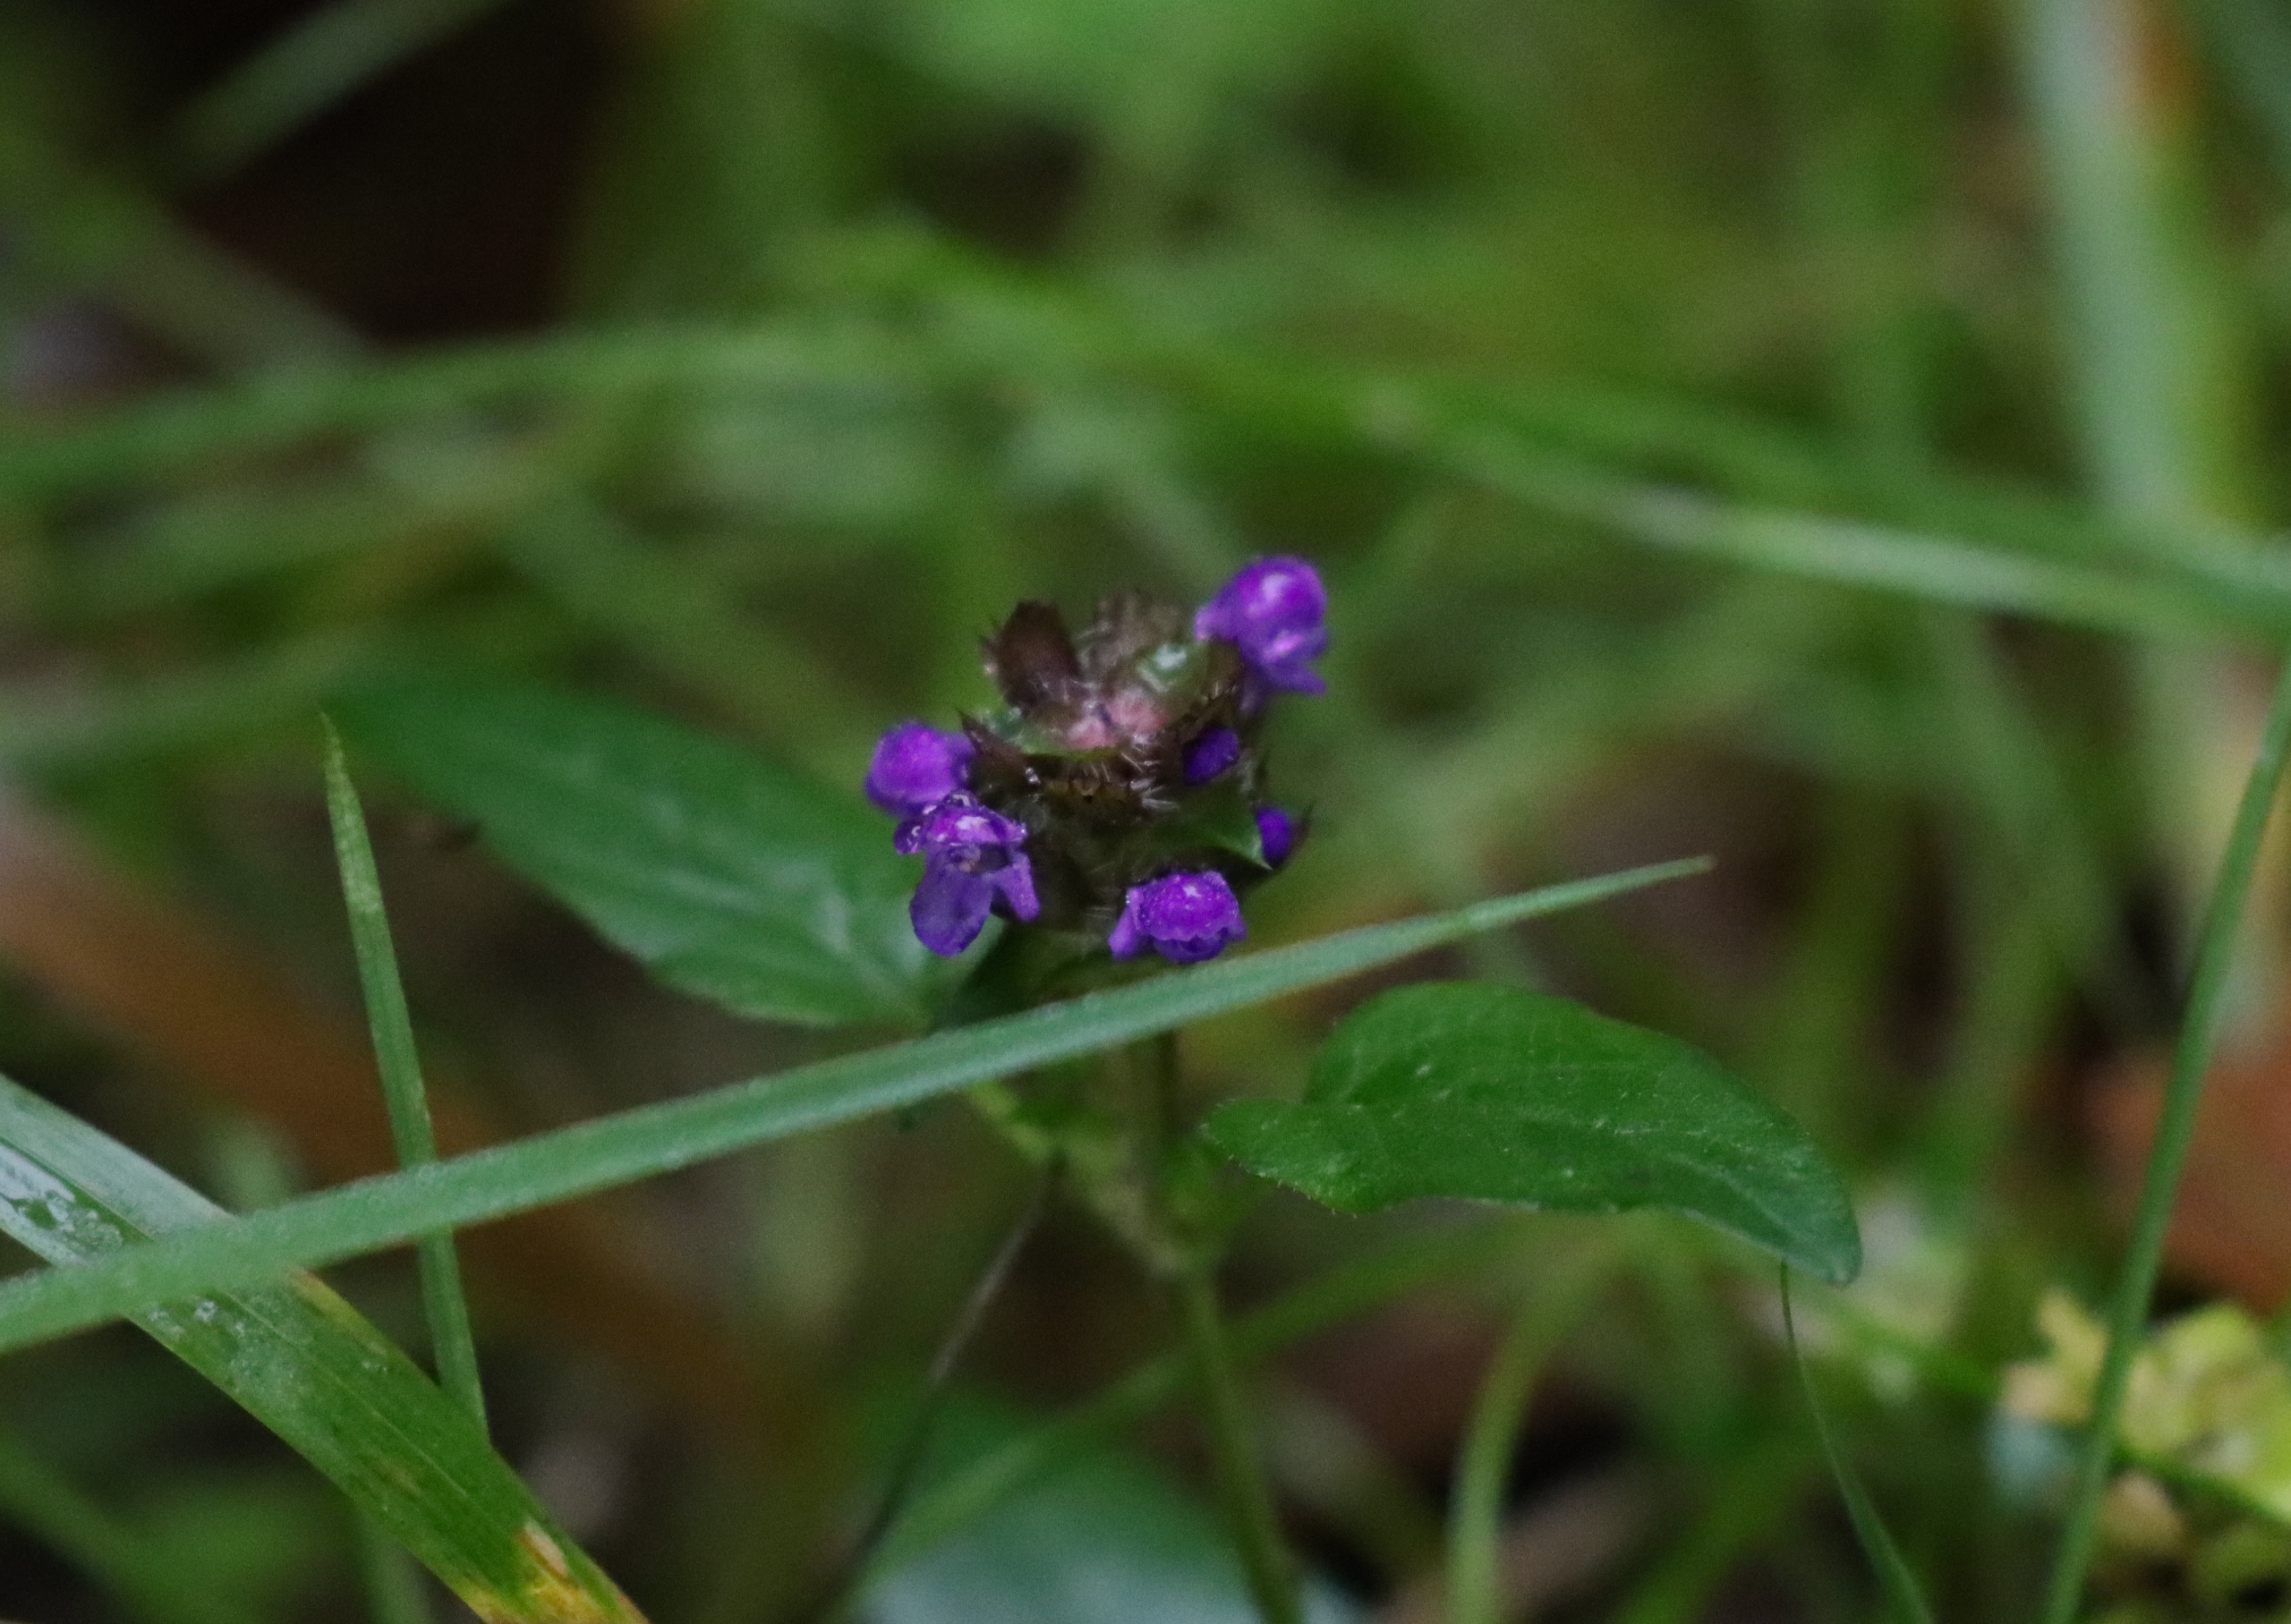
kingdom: Plantae
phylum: Tracheophyta
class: Magnoliopsida
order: Lamiales
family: Lamiaceae
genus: Prunella
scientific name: Prunella vulgaris
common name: Almindelig brunelle
